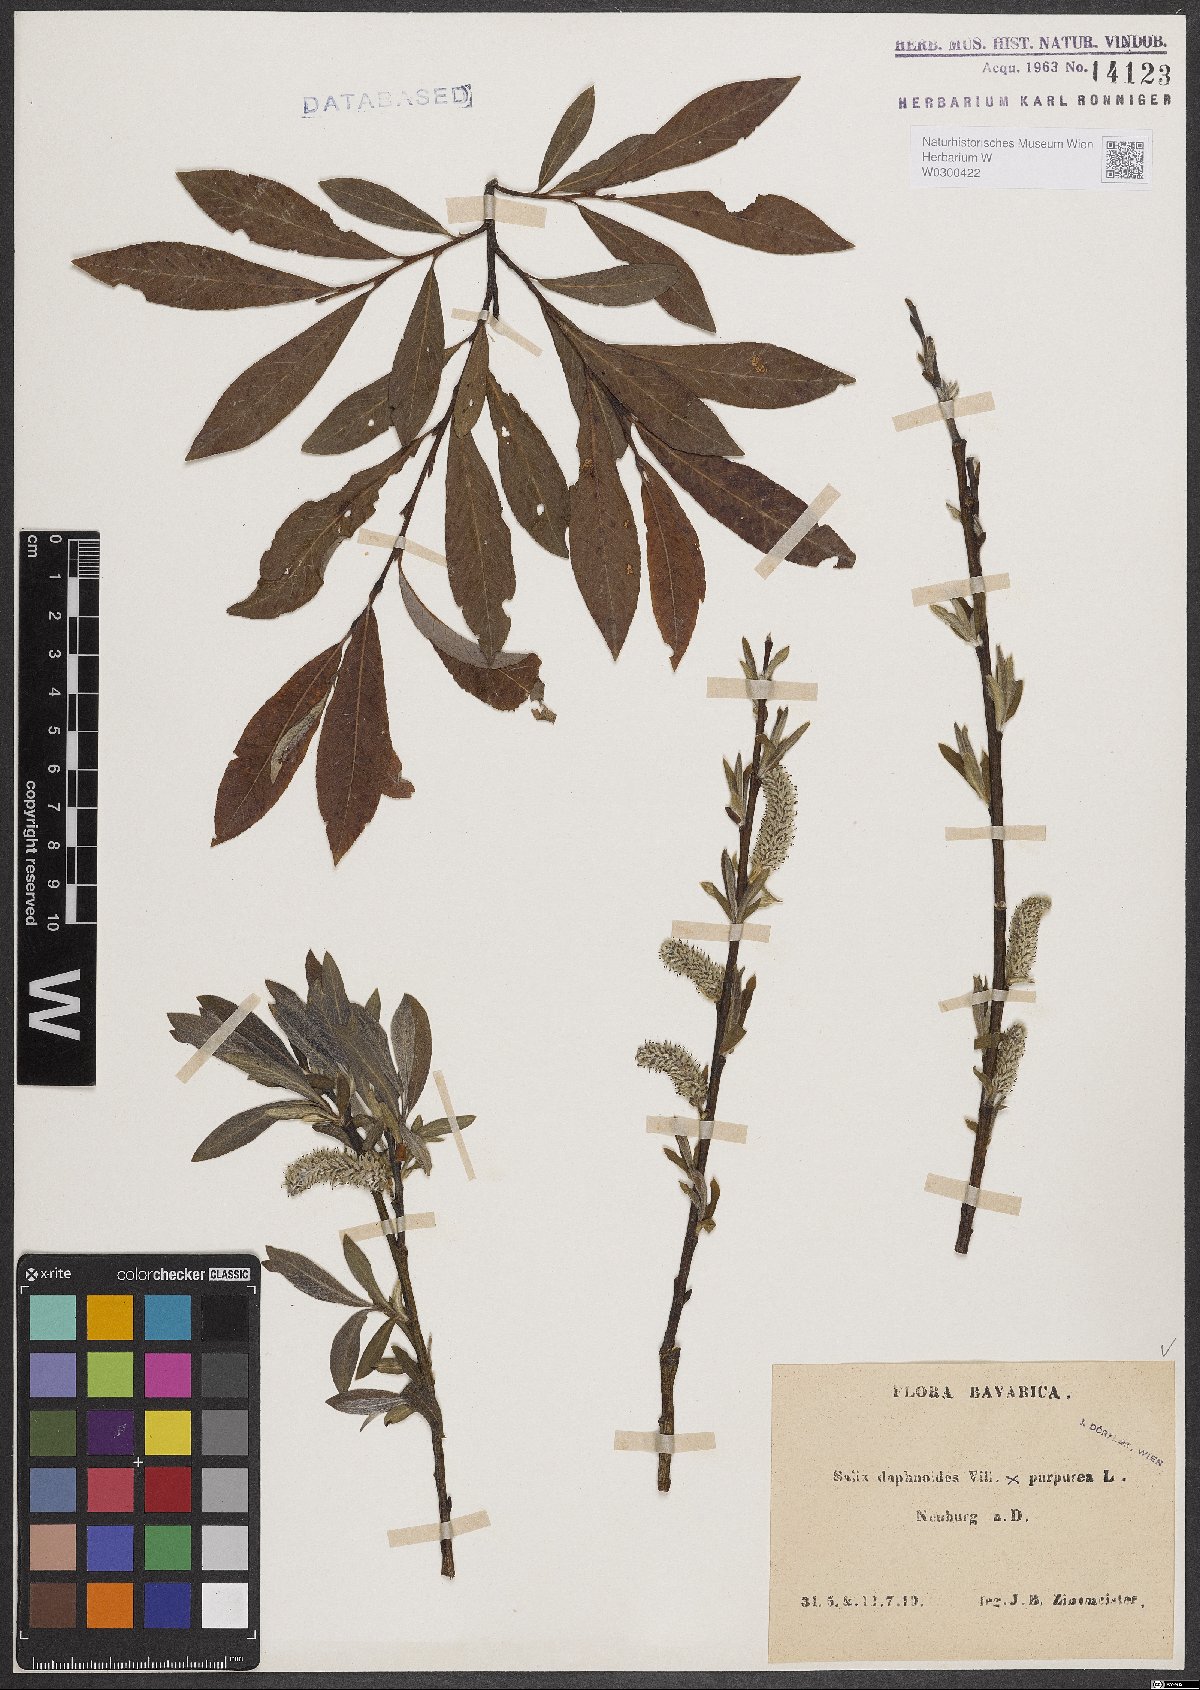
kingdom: Plantae
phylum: Tracheophyta
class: Magnoliopsida
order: Malpighiales
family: Salicaceae
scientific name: Salicaceae
